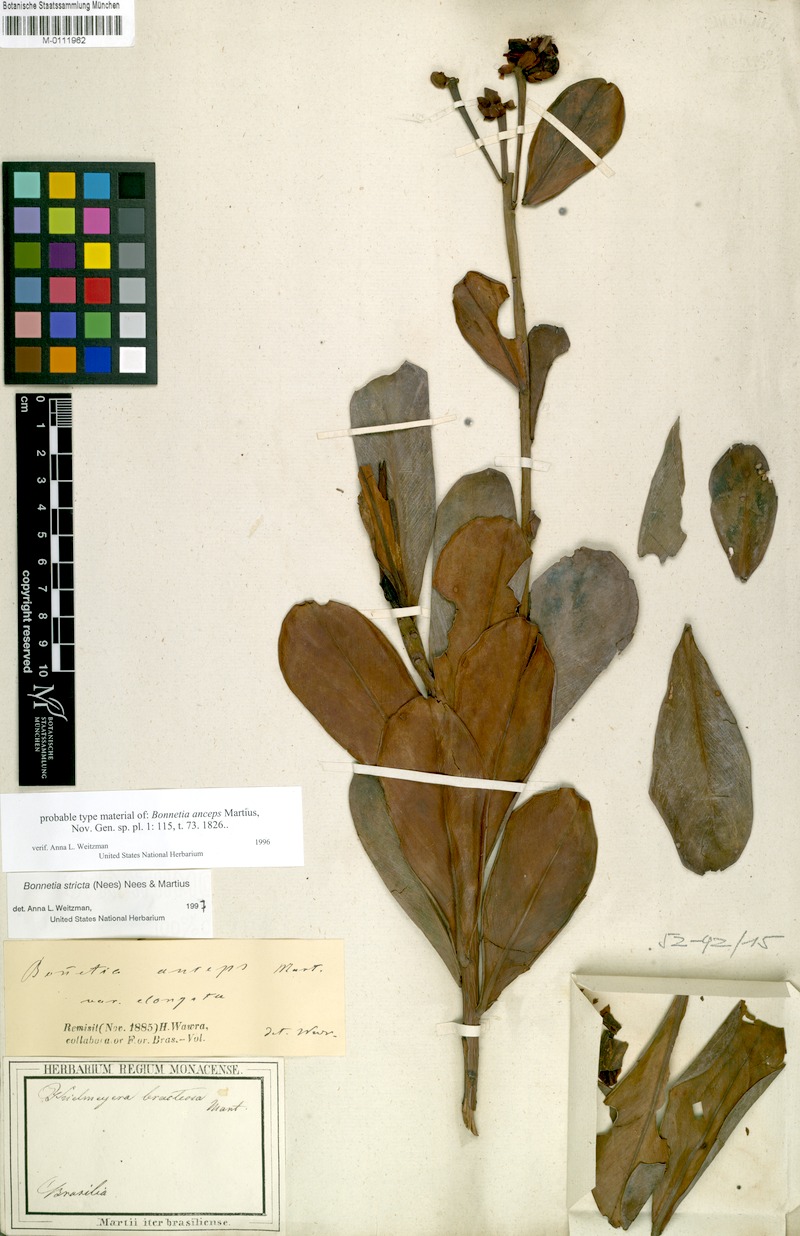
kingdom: Plantae
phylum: Tracheophyta
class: Magnoliopsida
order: Malpighiales
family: Bonnetiaceae
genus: Bonnetia
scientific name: Bonnetia stricta
